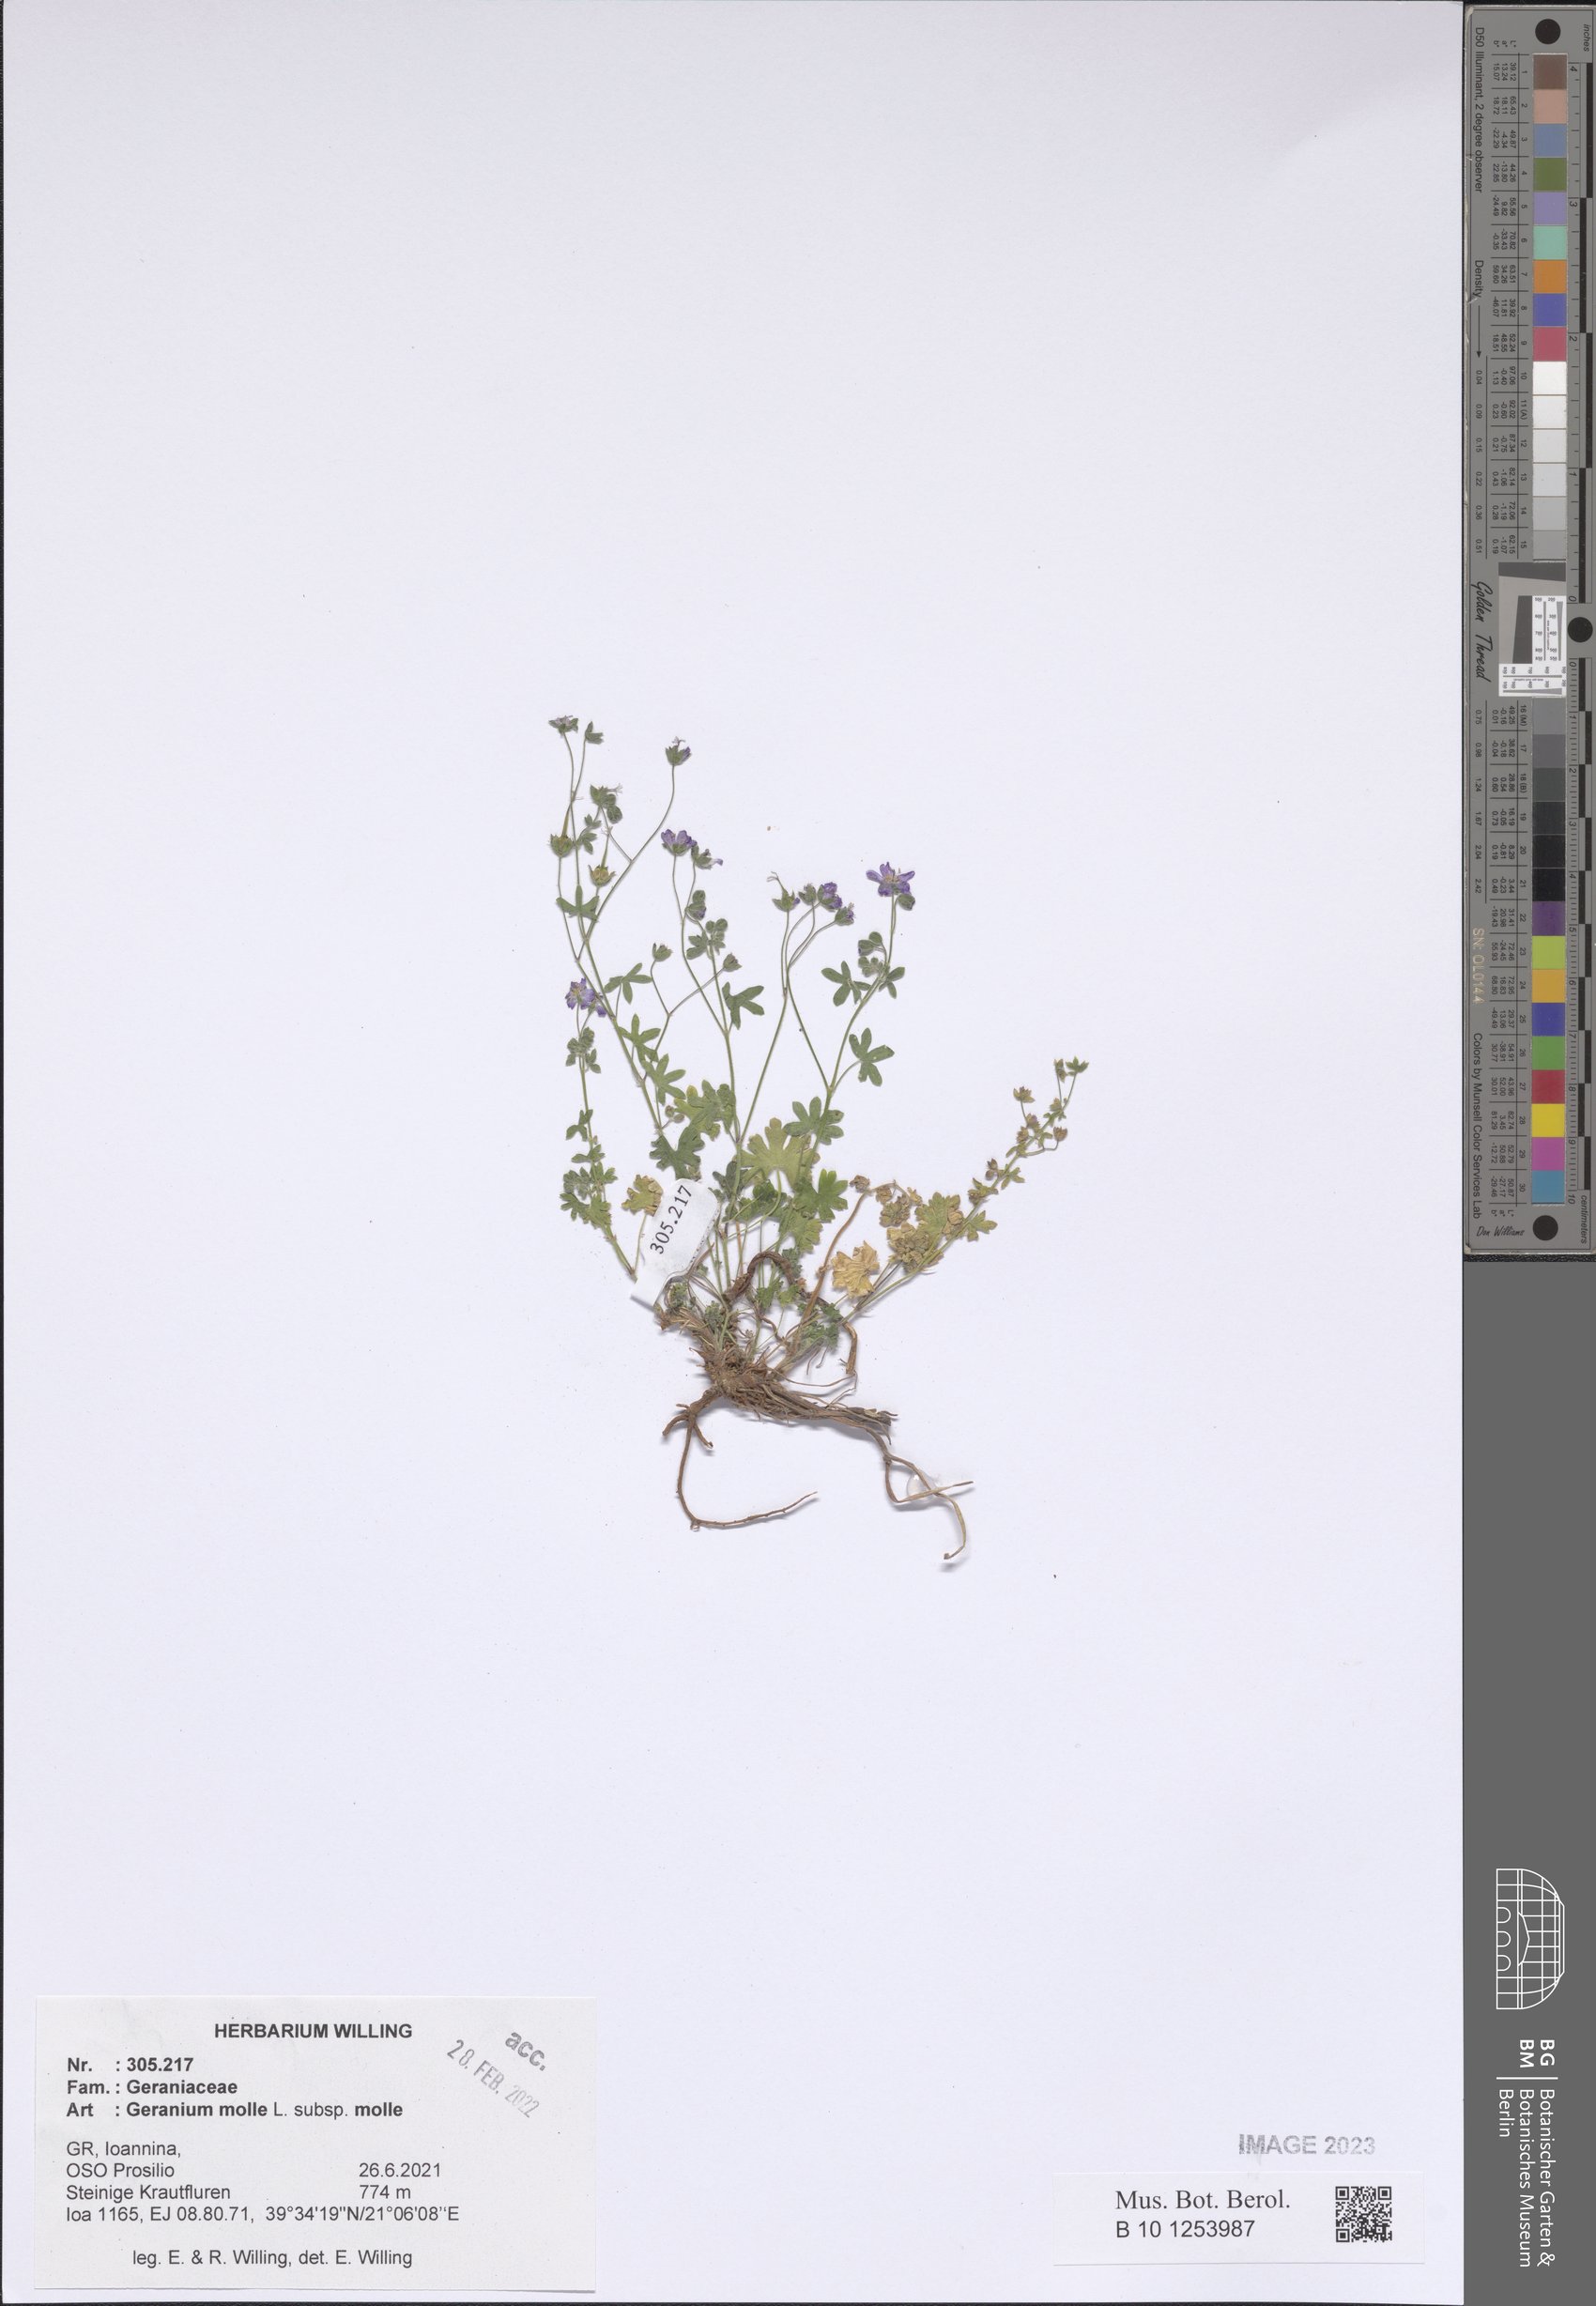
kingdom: Plantae
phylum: Tracheophyta
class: Magnoliopsida
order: Geraniales
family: Geraniaceae
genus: Geranium
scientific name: Geranium molle
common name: Dove's-foot crane's-bill
